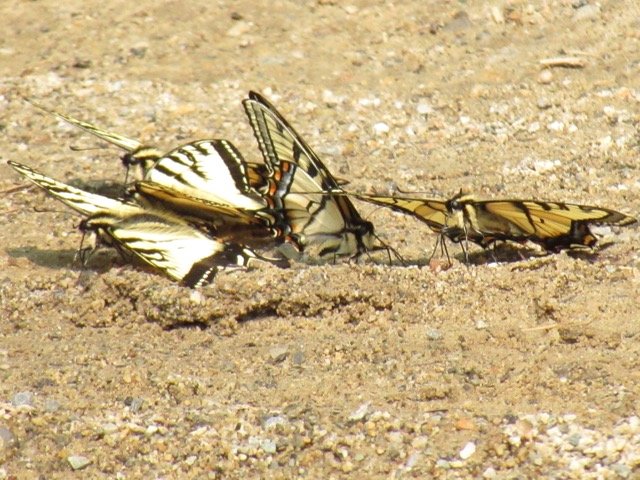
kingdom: Animalia
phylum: Arthropoda
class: Insecta
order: Lepidoptera
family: Papilionidae
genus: Pterourus
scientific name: Pterourus canadensis
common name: Canadian Tiger Swallowtail
